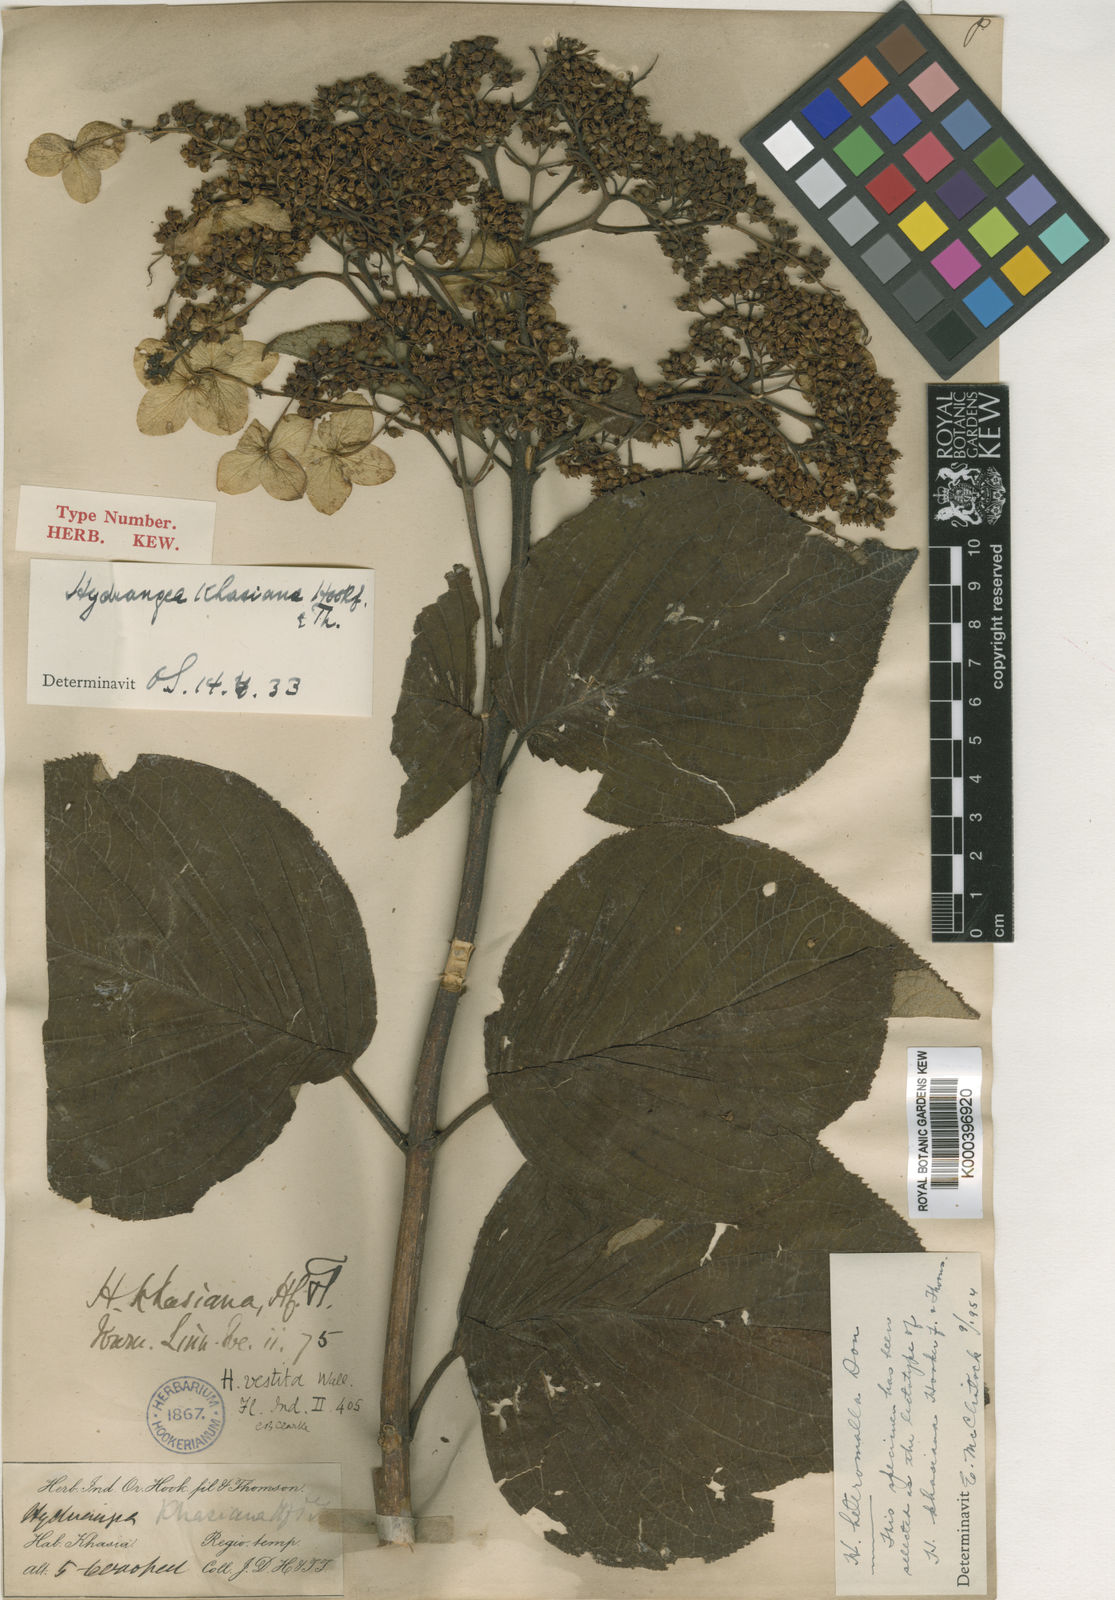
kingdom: Plantae
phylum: Tracheophyta
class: Magnoliopsida
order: Cornales
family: Hydrangeaceae
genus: Hydrangea
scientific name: Hydrangea heteromalla
